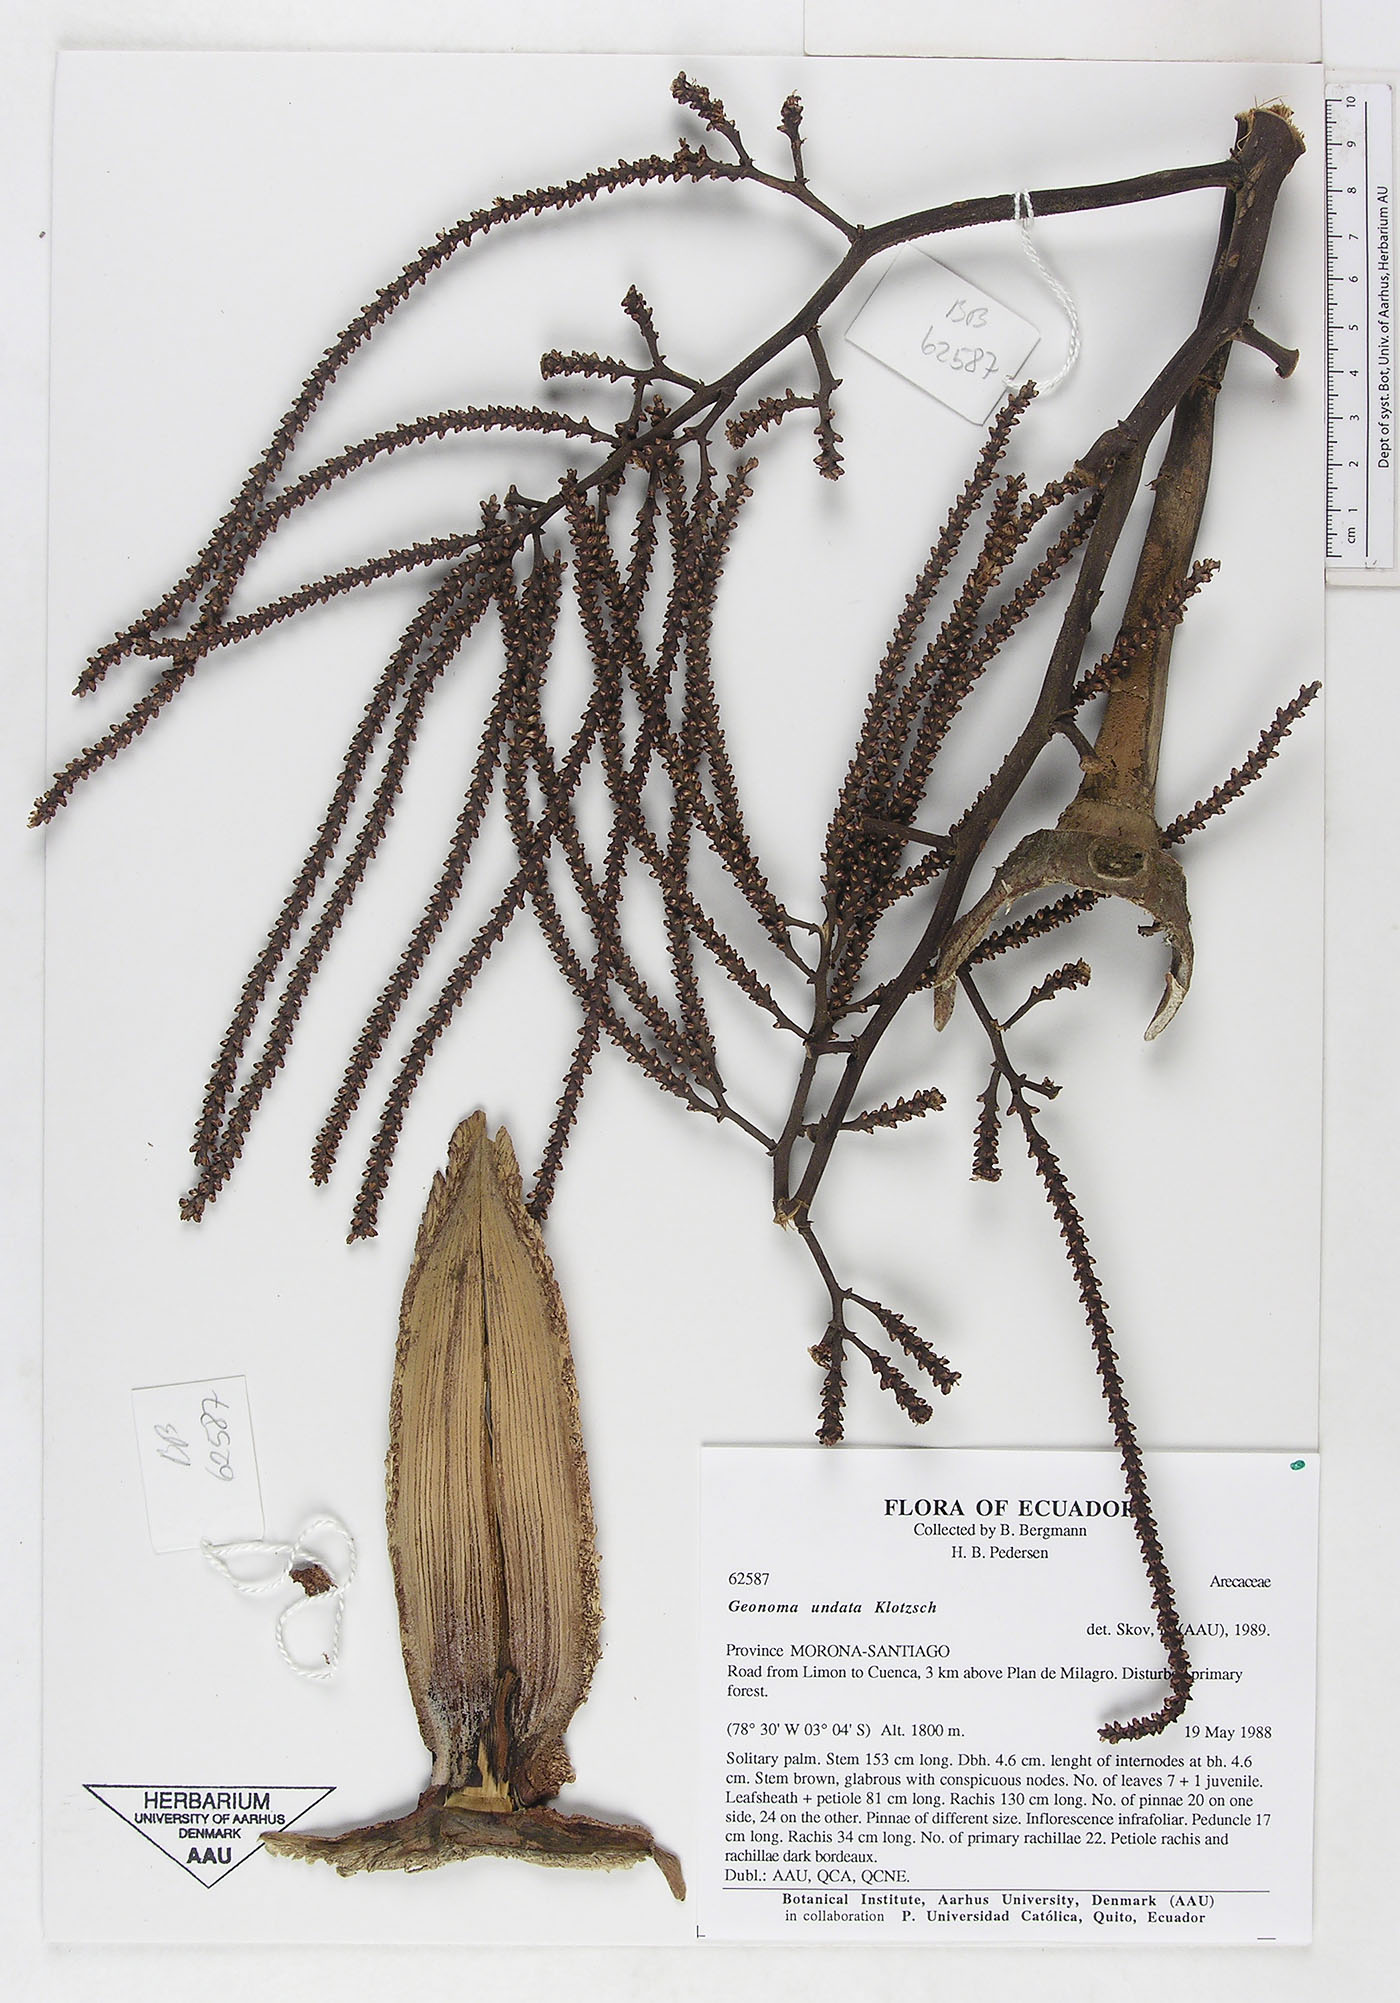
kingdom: Plantae
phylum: Tracheophyta
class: Liliopsida
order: Arecales
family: Arecaceae
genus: Geonoma
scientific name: Geonoma undata
